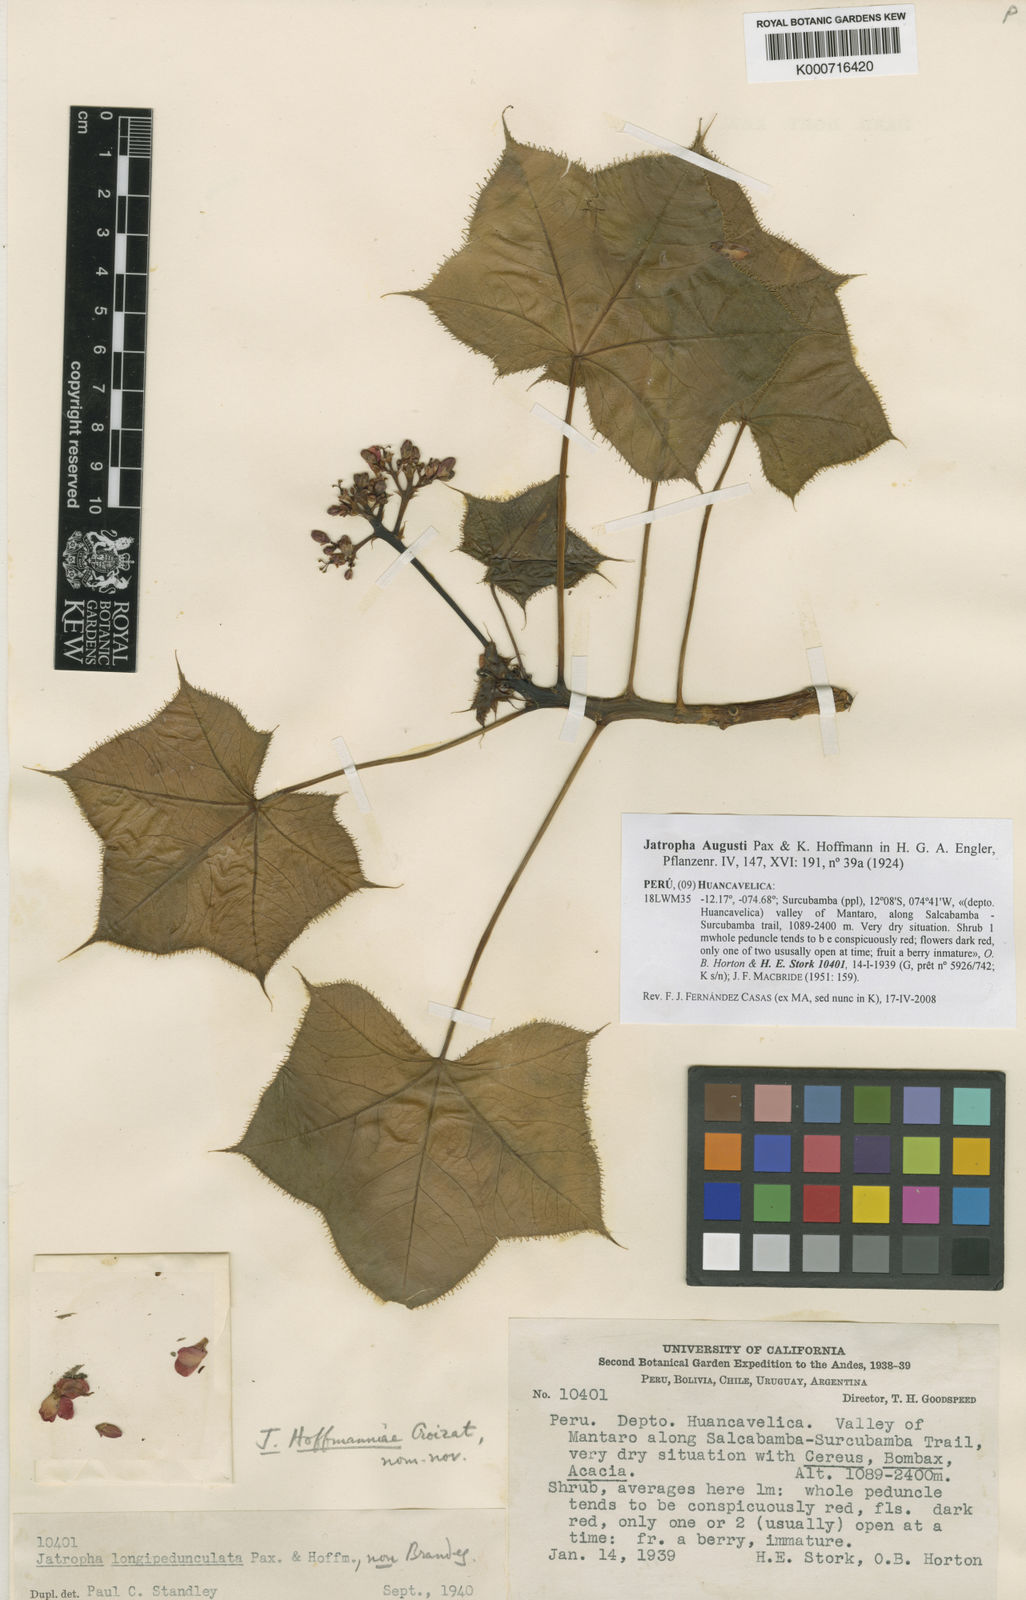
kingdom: Plantae
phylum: Tracheophyta
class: Magnoliopsida
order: Malpighiales
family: Euphorbiaceae
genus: Jatropha
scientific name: Jatropha augusti
